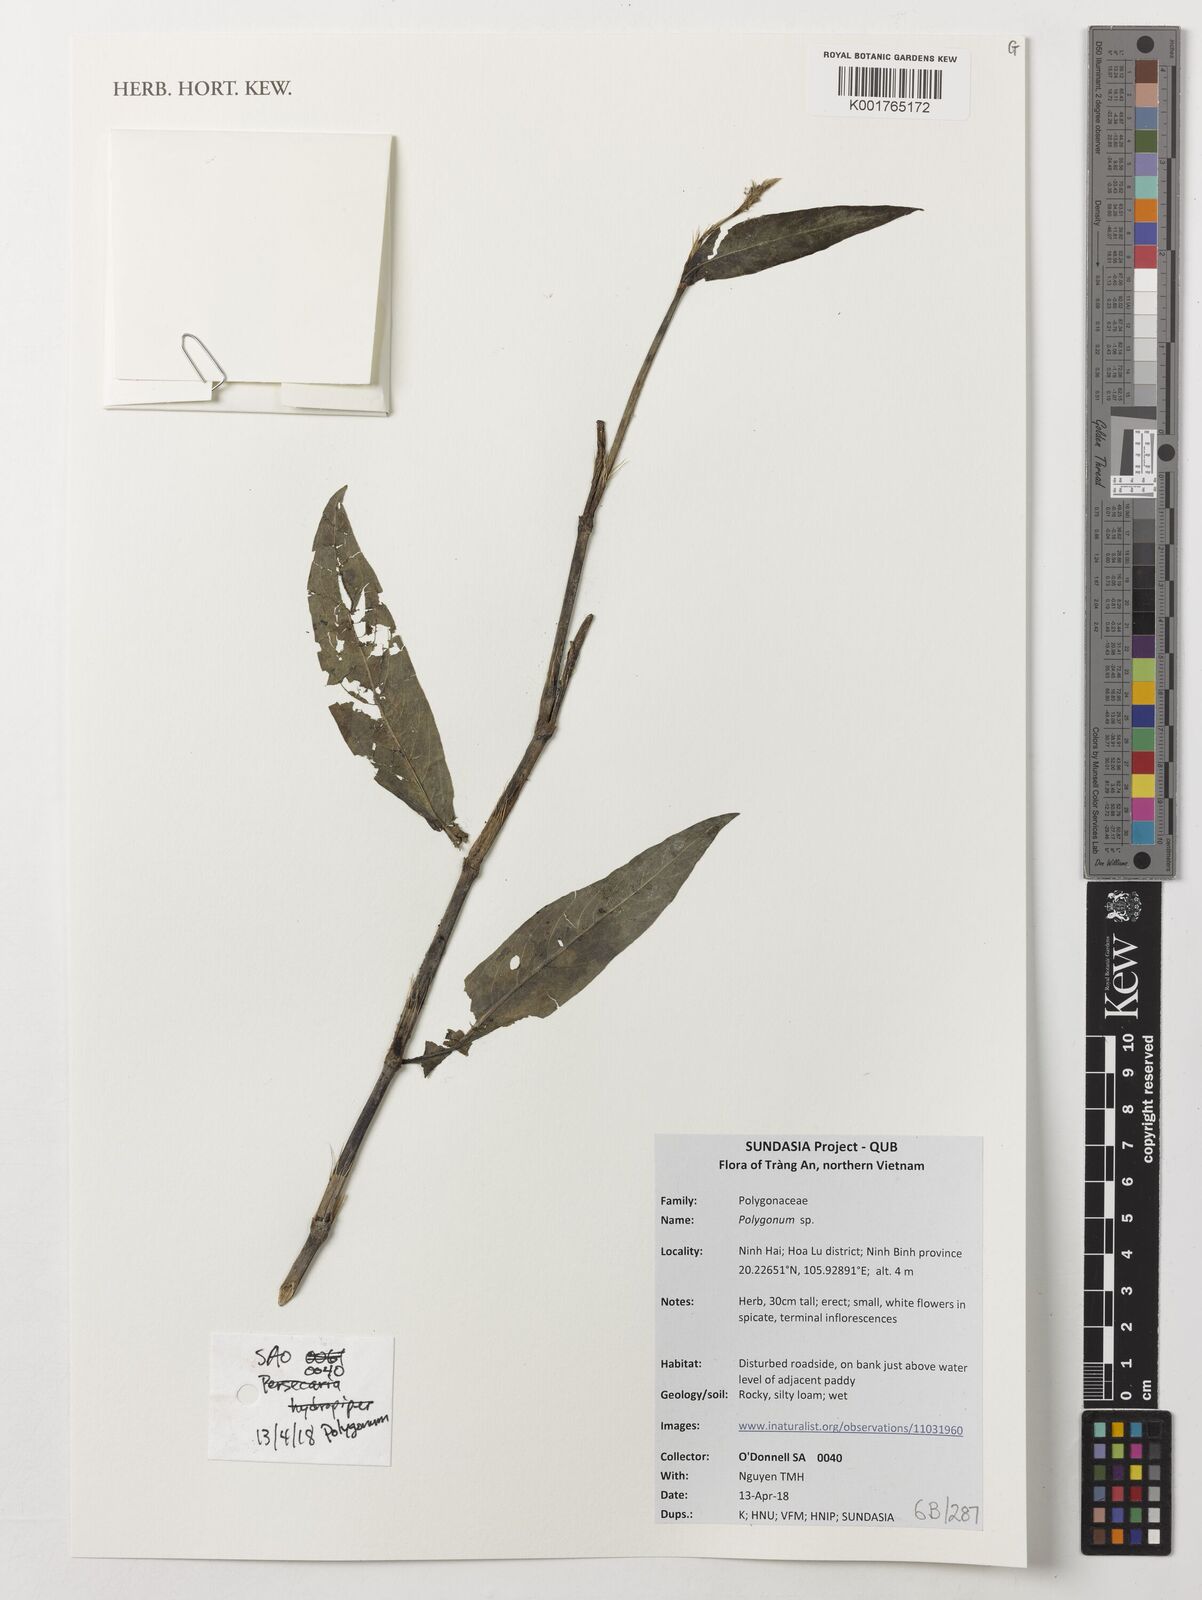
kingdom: Plantae
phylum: Tracheophyta
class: Magnoliopsida
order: Caryophyllales
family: Polygonaceae
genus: Polygonum
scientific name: Polygonum
